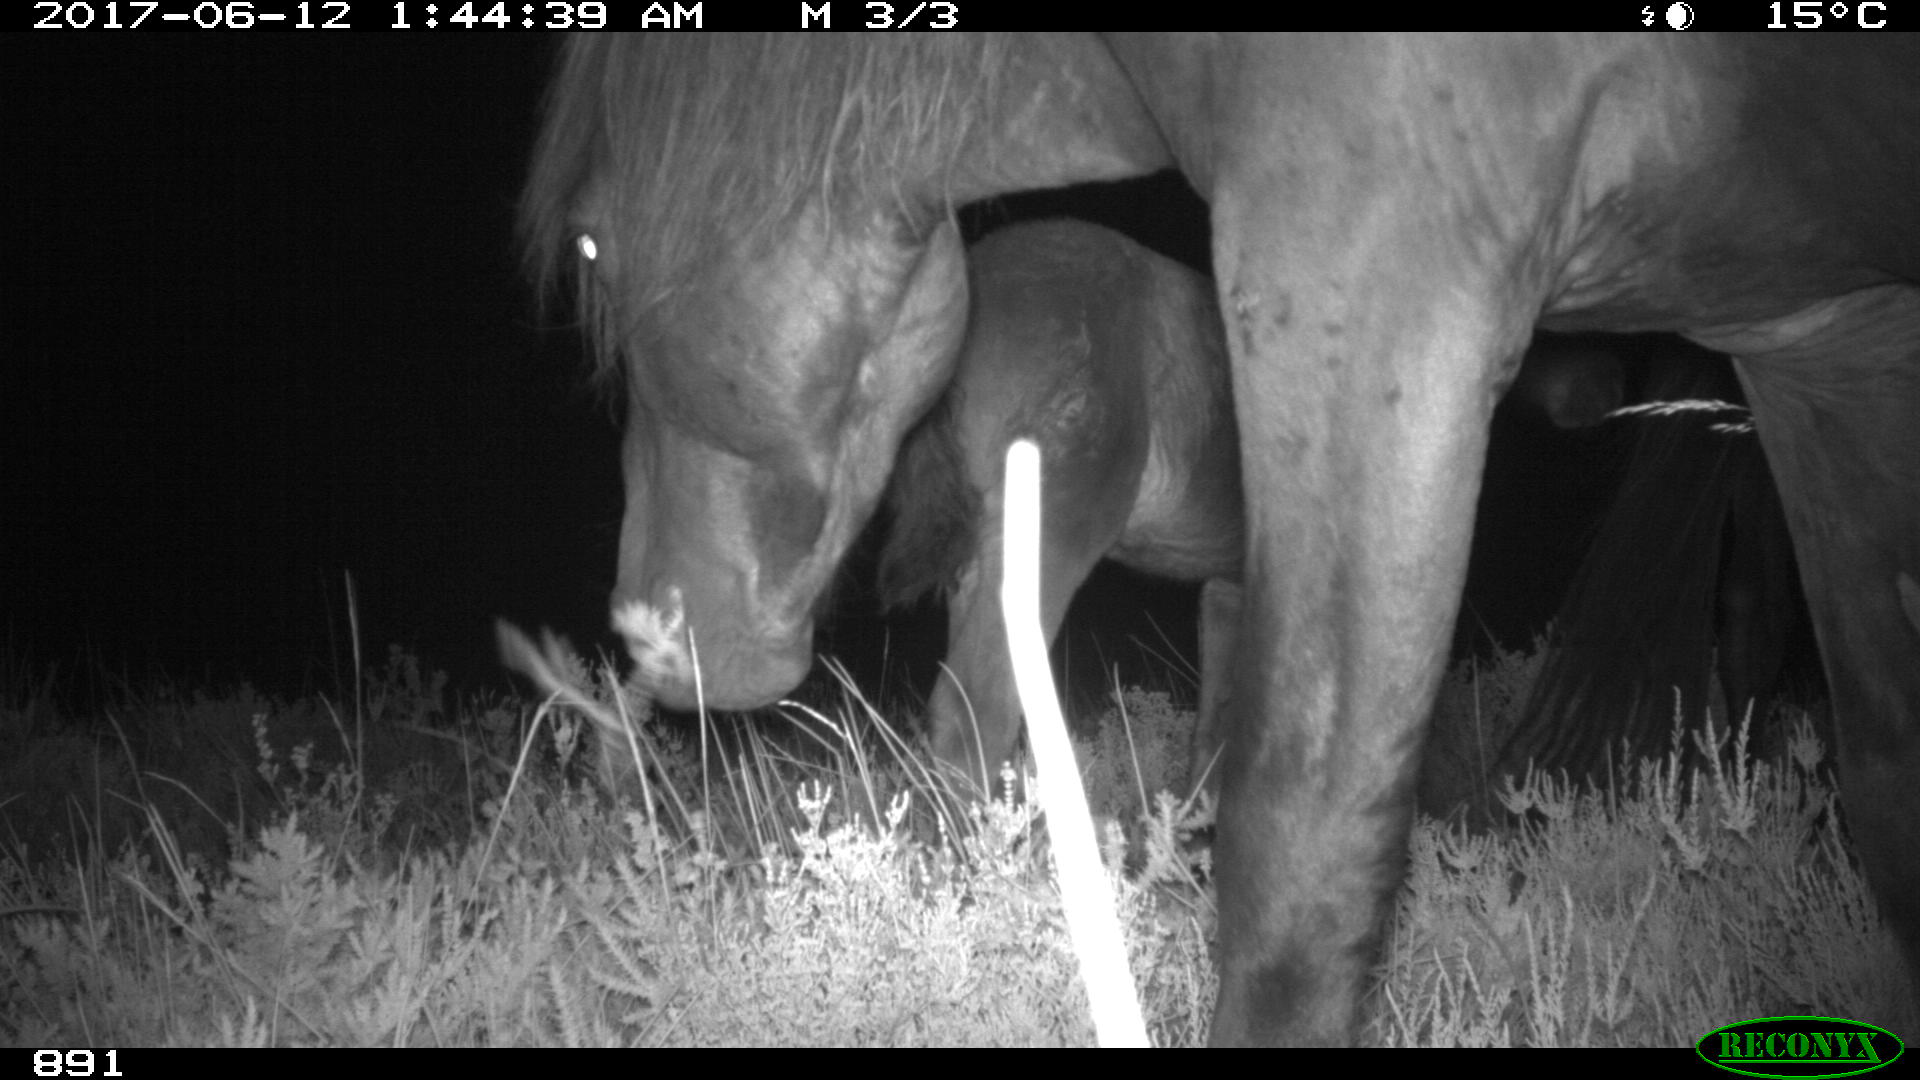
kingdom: Animalia
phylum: Chordata
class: Mammalia
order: Perissodactyla
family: Equidae
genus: Equus
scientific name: Equus caballus
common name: Horse
